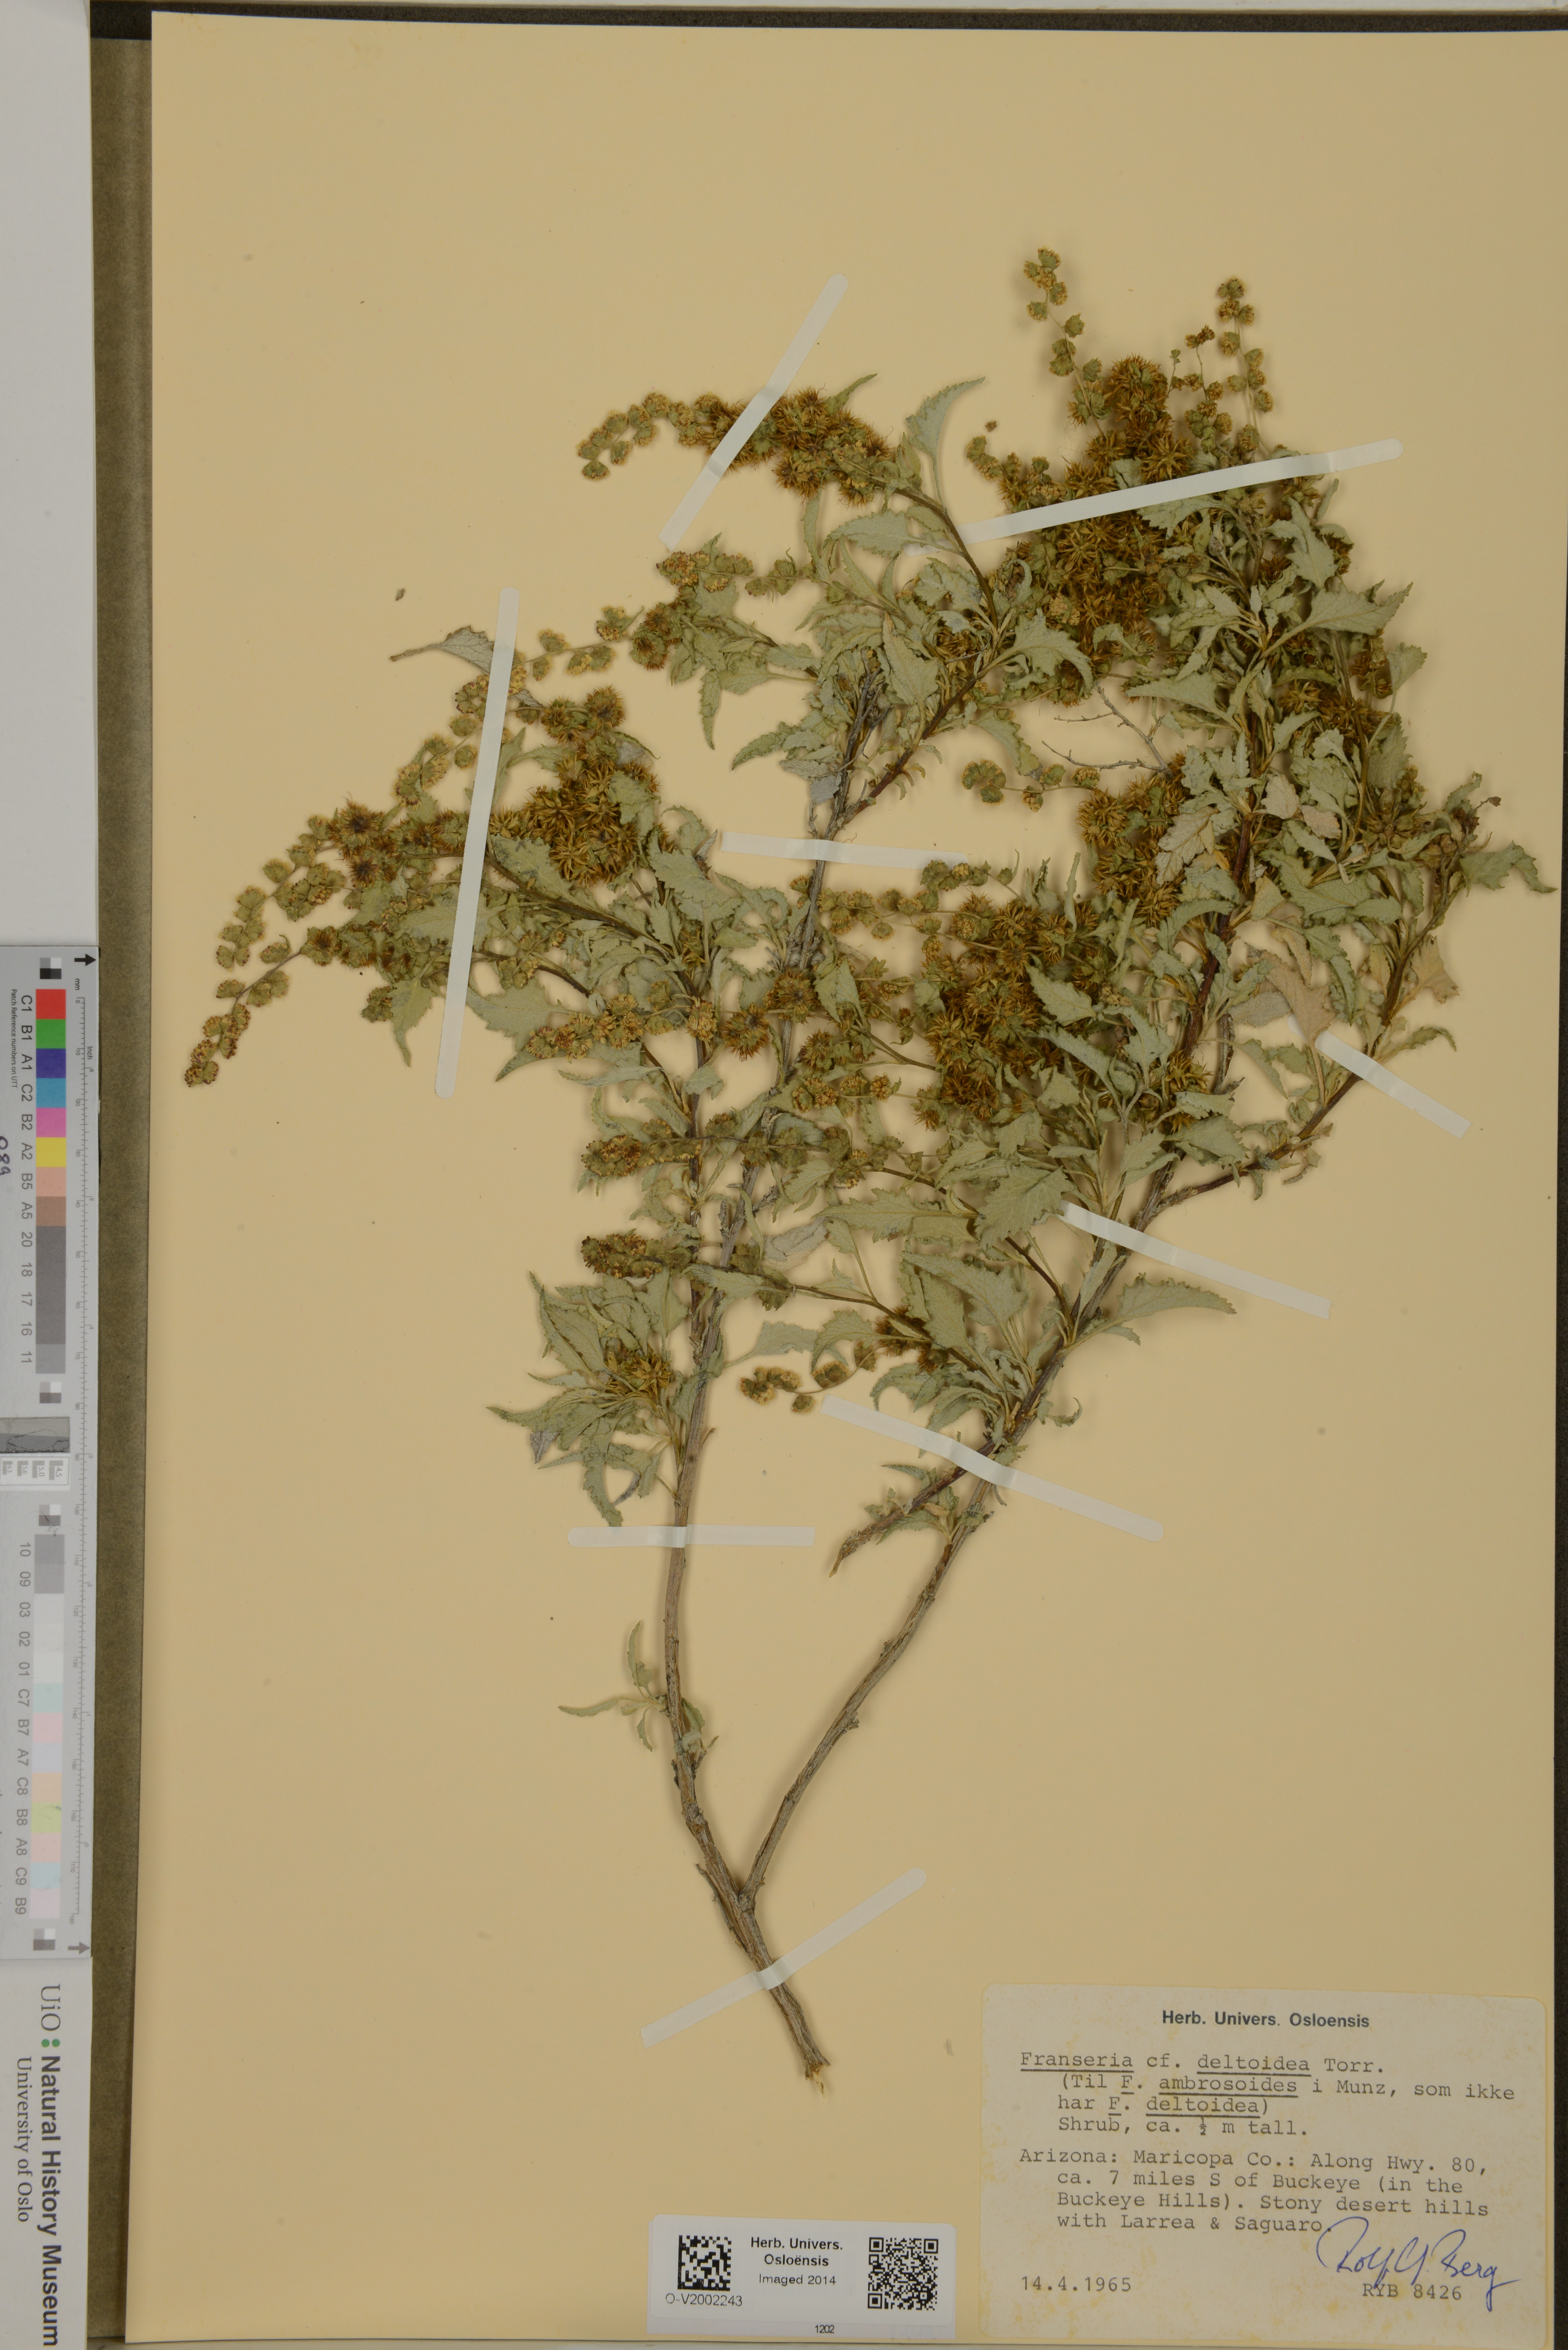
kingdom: Plantae
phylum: Tracheophyta
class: Magnoliopsida
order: Asterales
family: Asteraceae
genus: Ambrosia
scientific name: Ambrosia deltoidea
